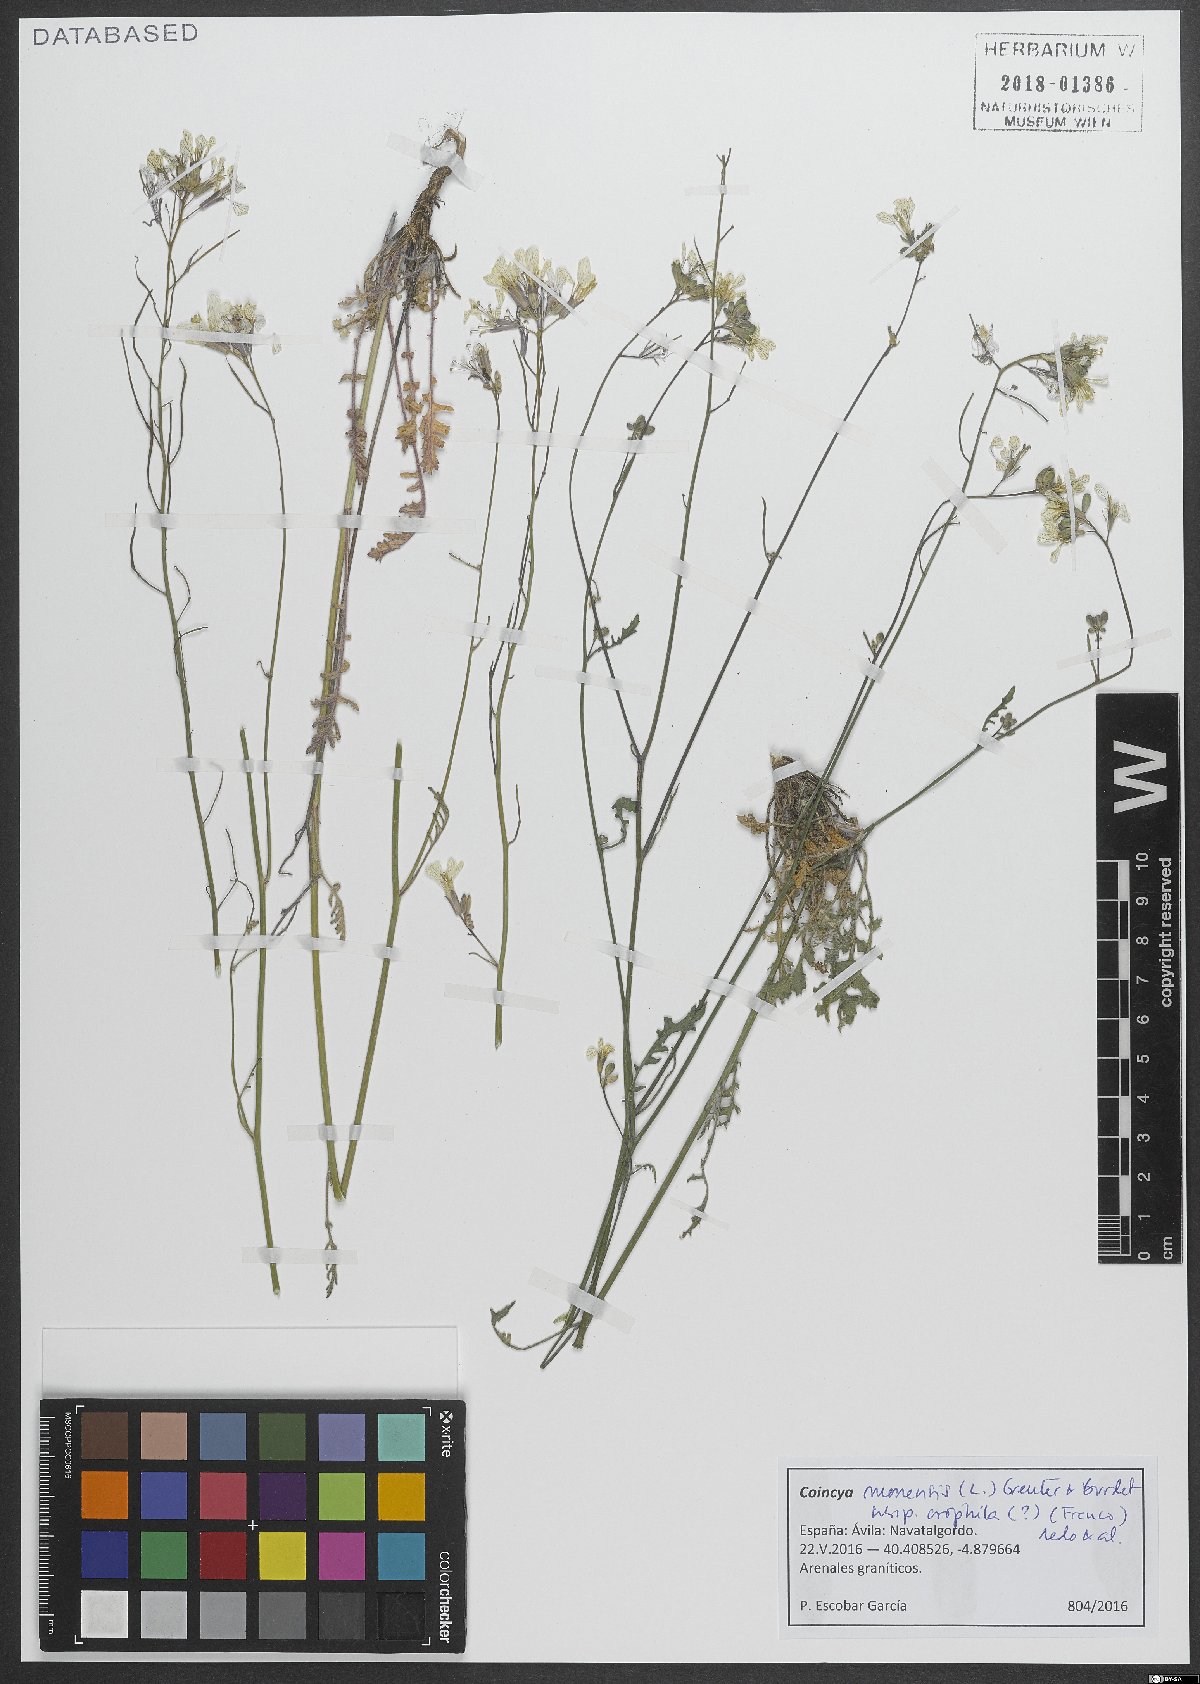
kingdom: Plantae
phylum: Tracheophyta
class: Magnoliopsida
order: Brassicales
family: Brassicaceae
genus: Coincya
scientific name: Coincya monensis
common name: Star-mustard
